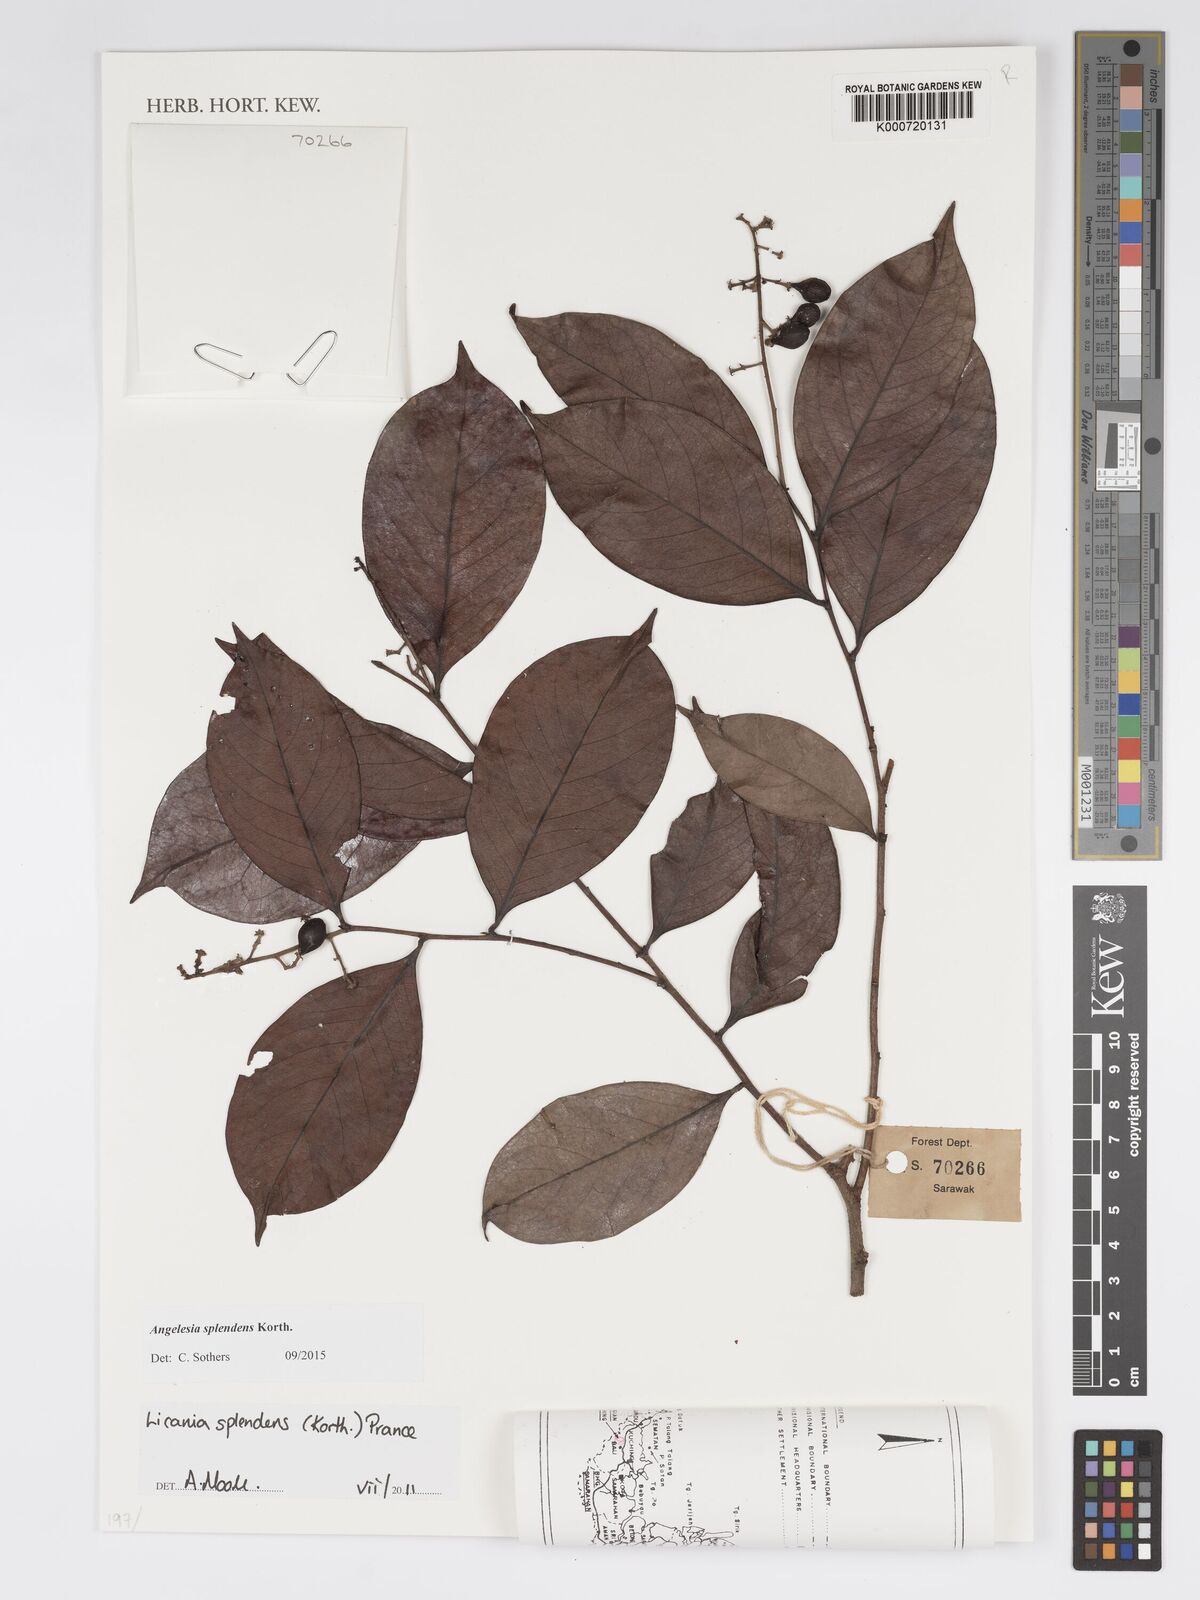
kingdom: Plantae
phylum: Tracheophyta
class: Magnoliopsida
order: Malpighiales
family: Chrysobalanaceae
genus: Angelesia
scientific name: Angelesia splendens
